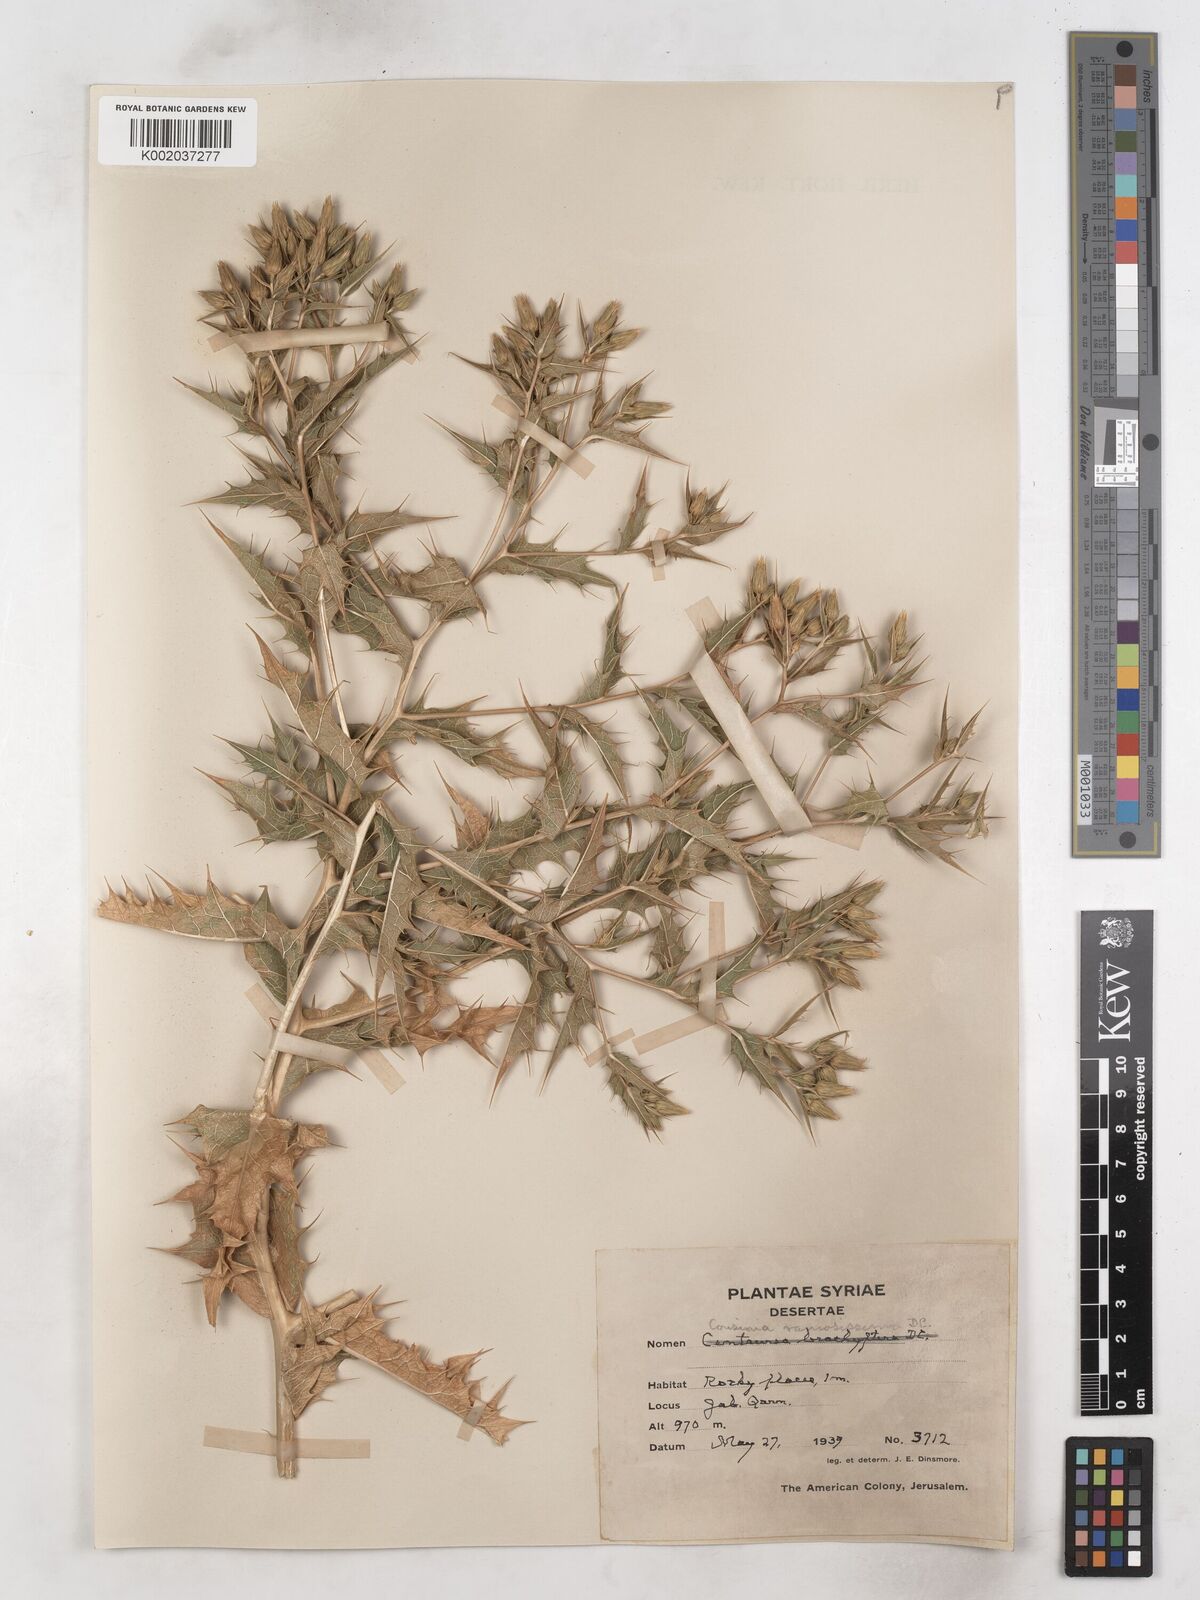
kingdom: Plantae
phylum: Tracheophyta
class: Magnoliopsida
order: Asterales
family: Asteraceae
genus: Cousinia
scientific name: Cousinia ramosissima
